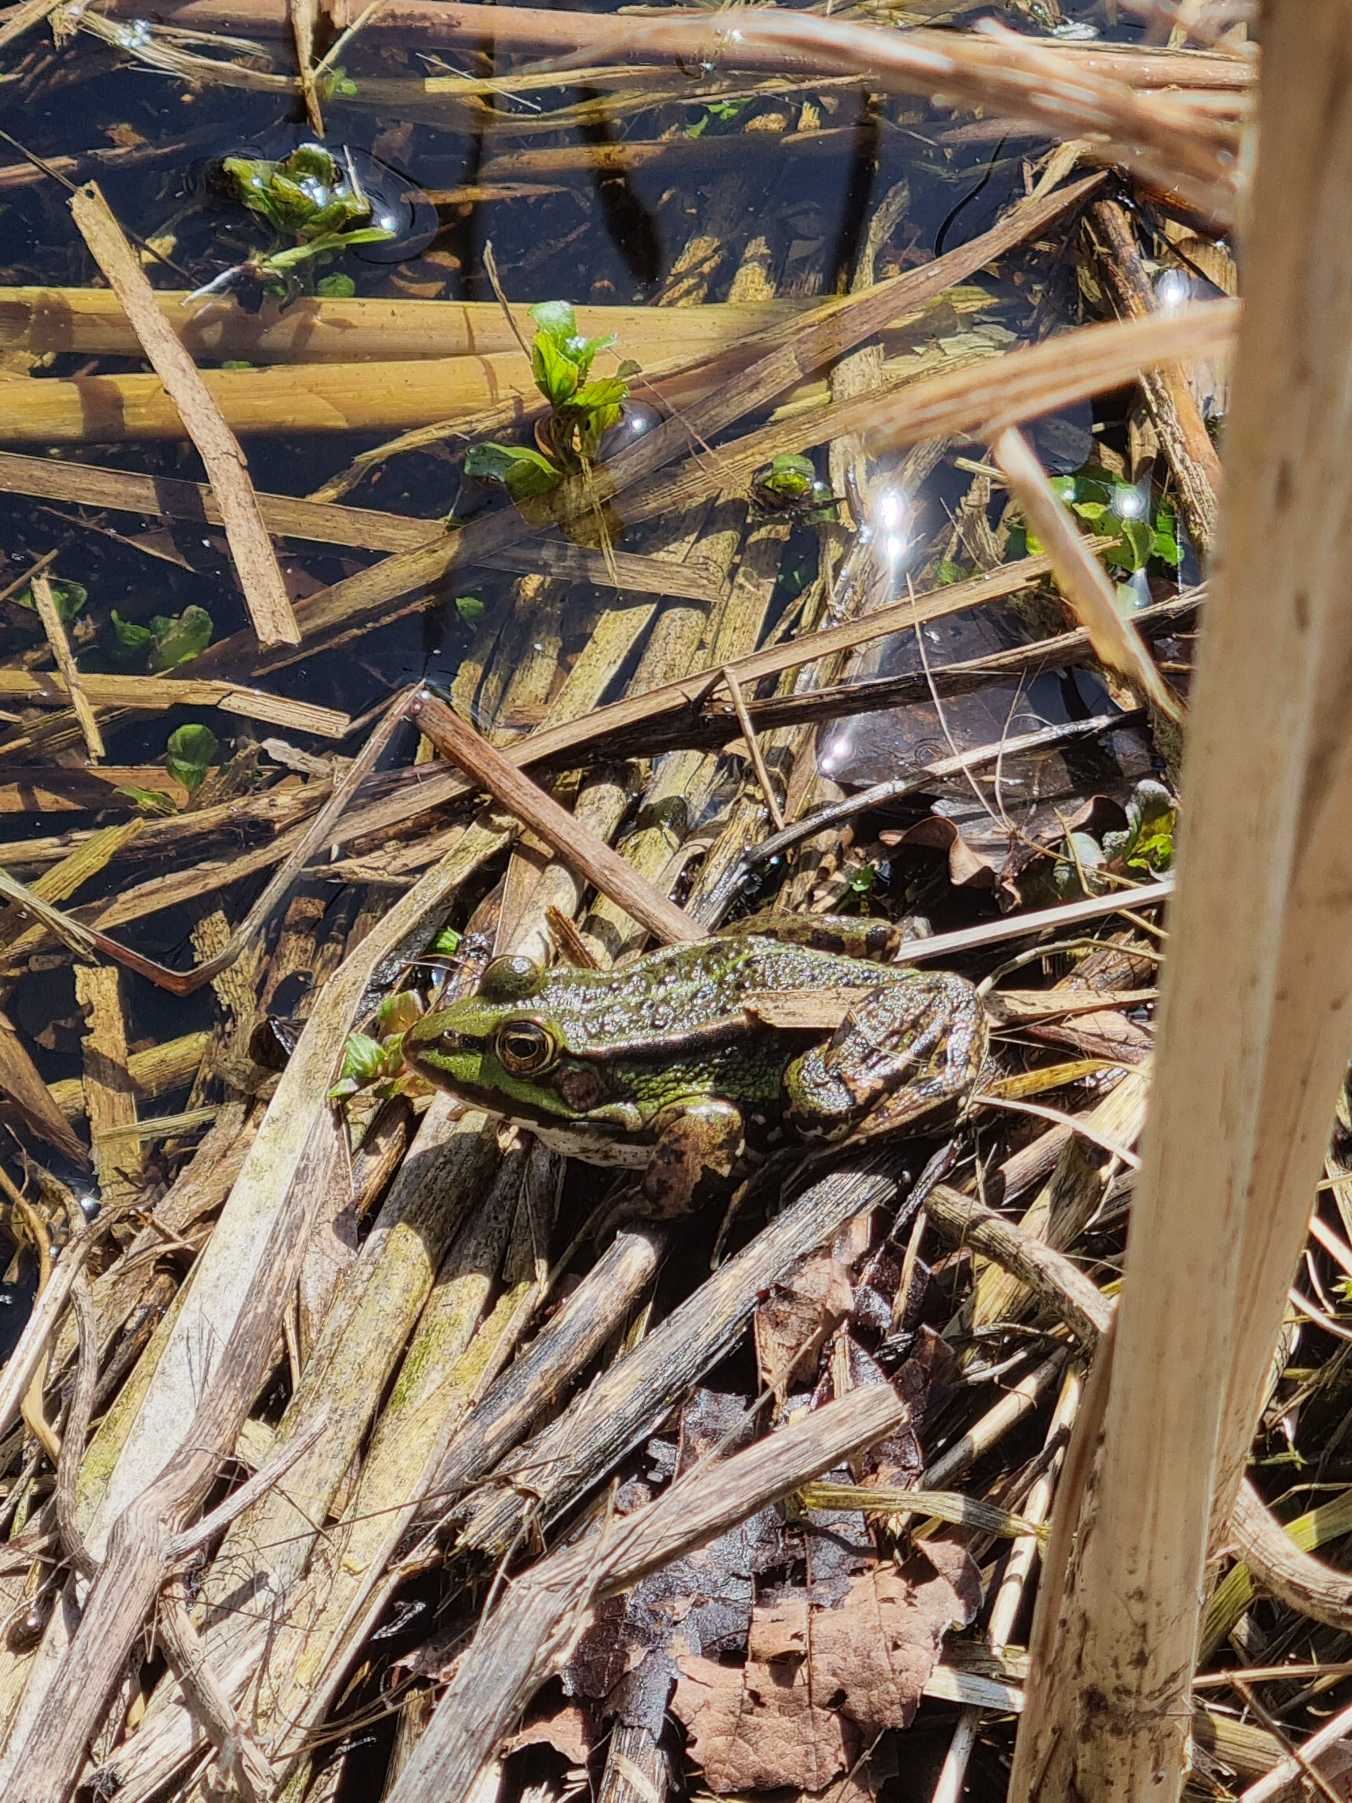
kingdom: Animalia
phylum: Chordata
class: Amphibia
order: Anura
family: Ranidae
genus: Pelophylax
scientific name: Pelophylax lessonae
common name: Grøn frø
